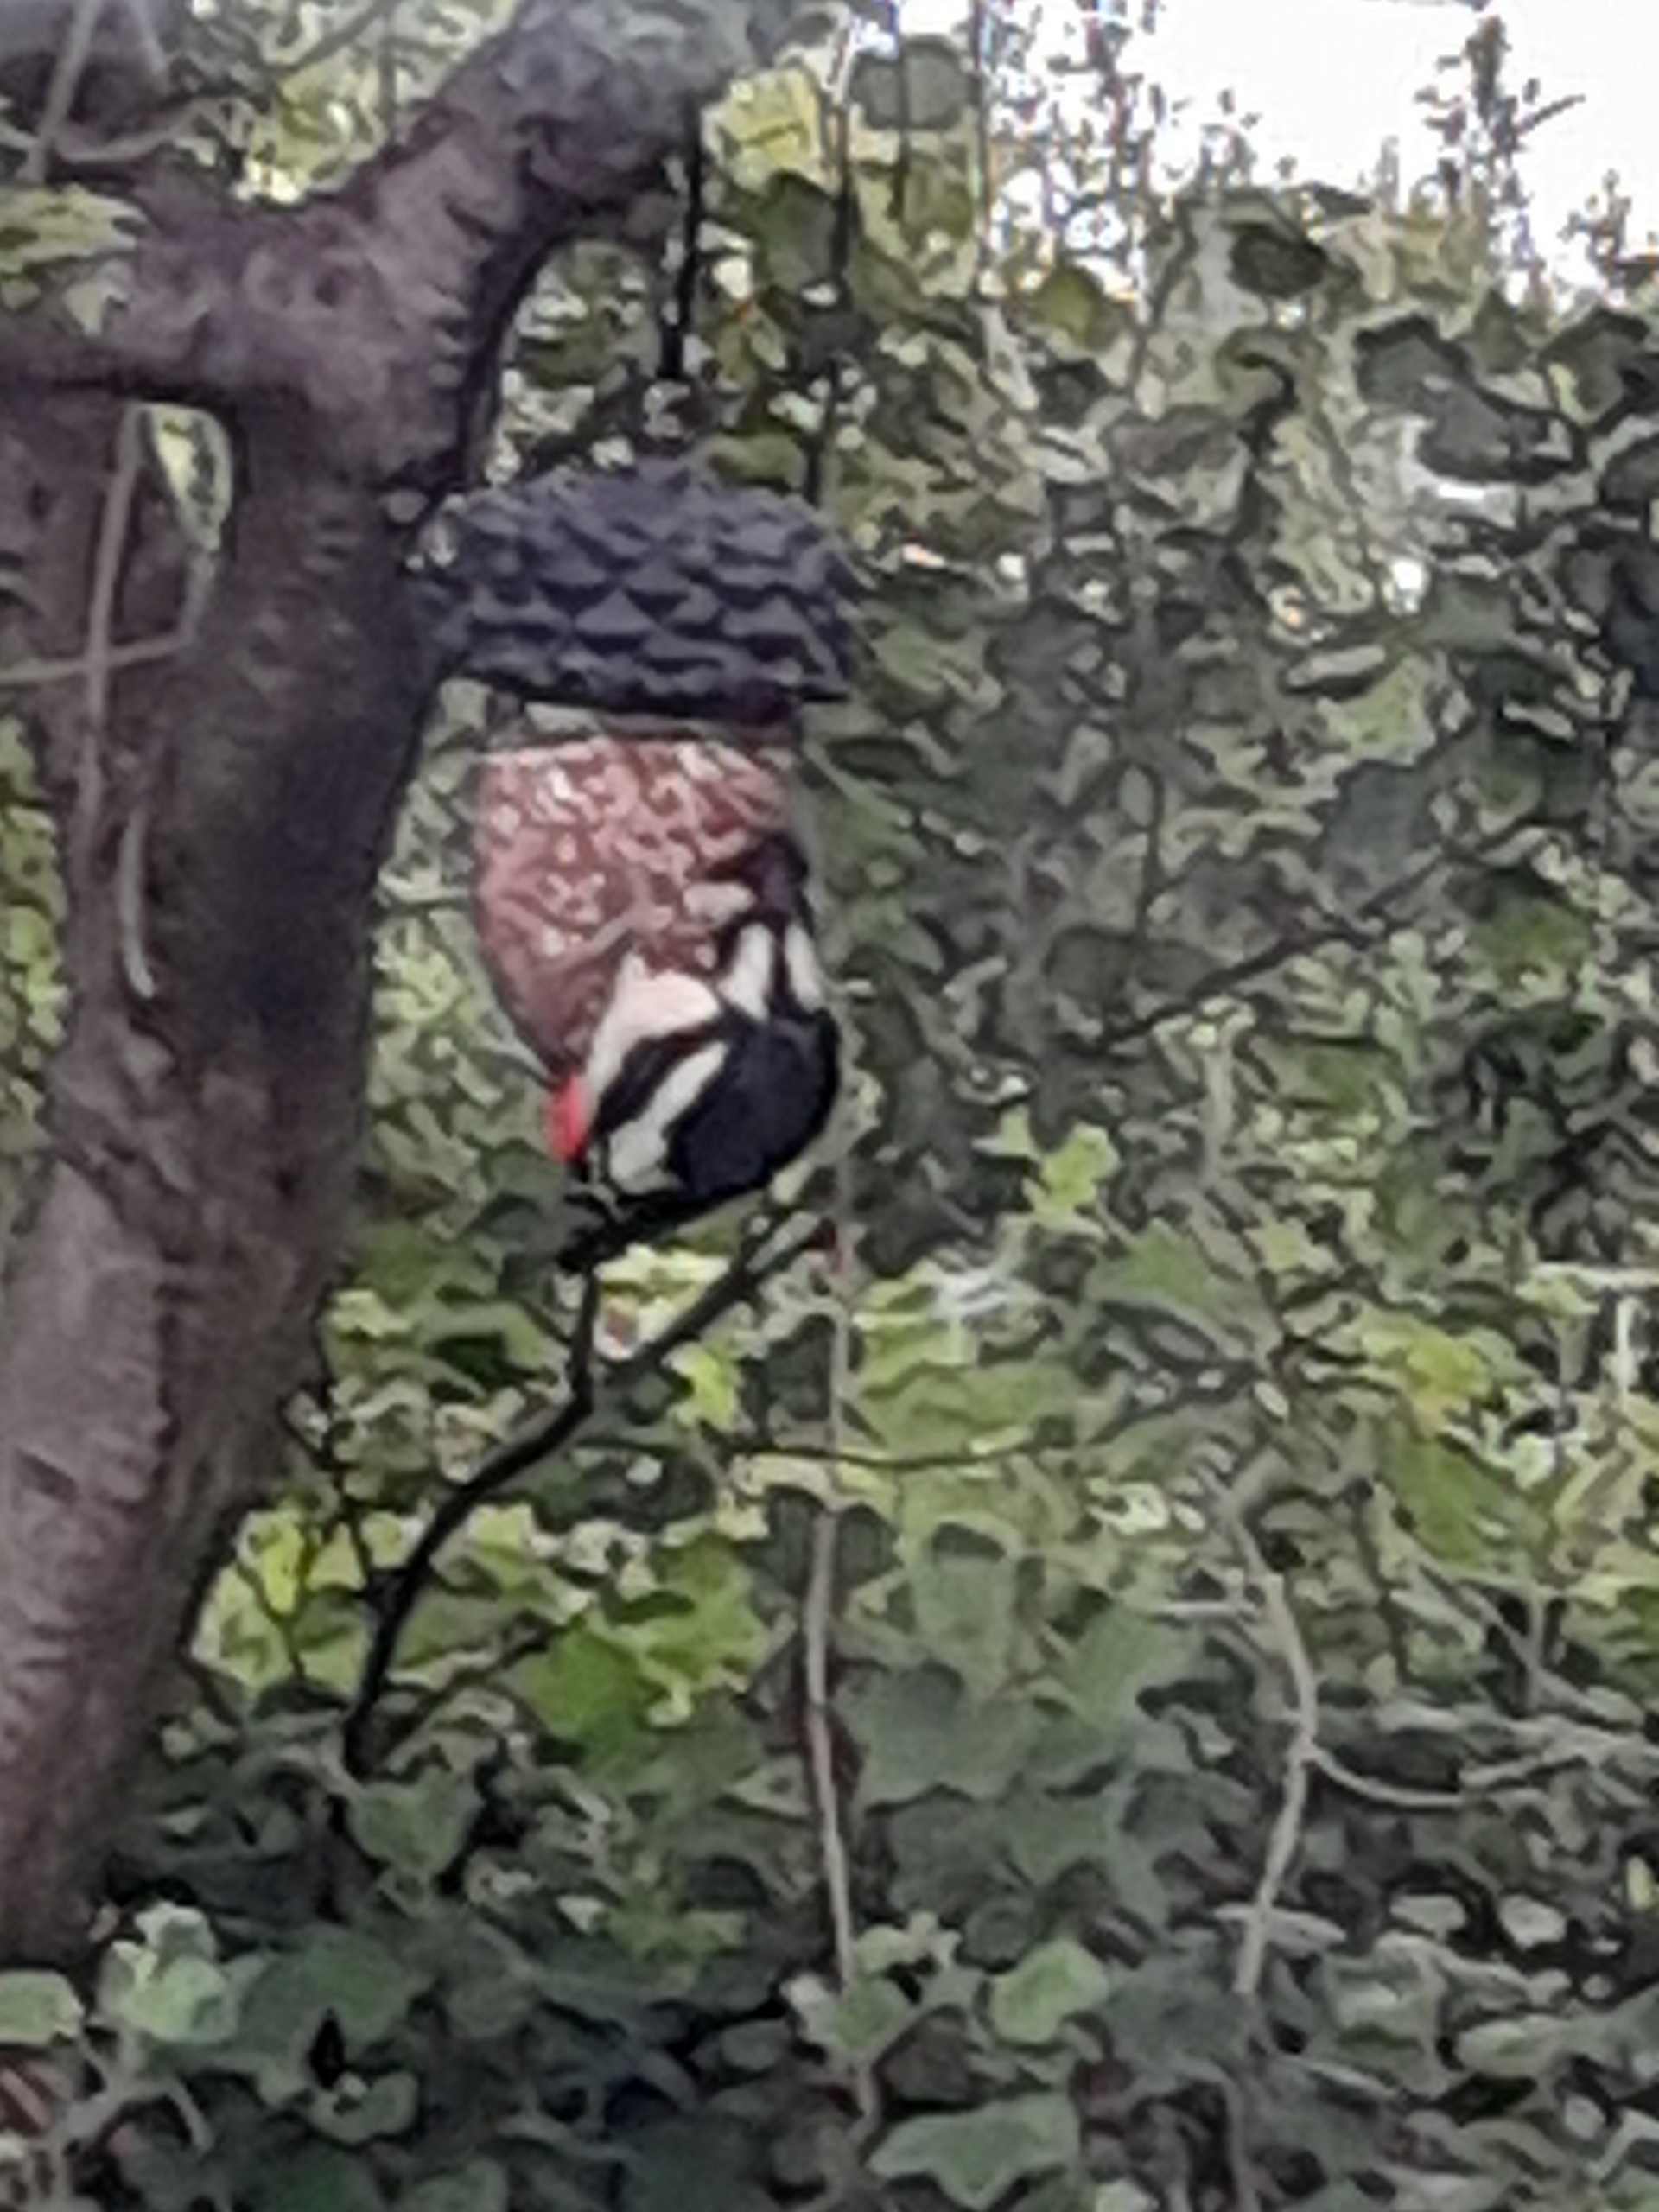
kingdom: Animalia
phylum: Chordata
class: Aves
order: Piciformes
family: Picidae
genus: Dendrocopos
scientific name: Dendrocopos major
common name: Stor flagspætte
